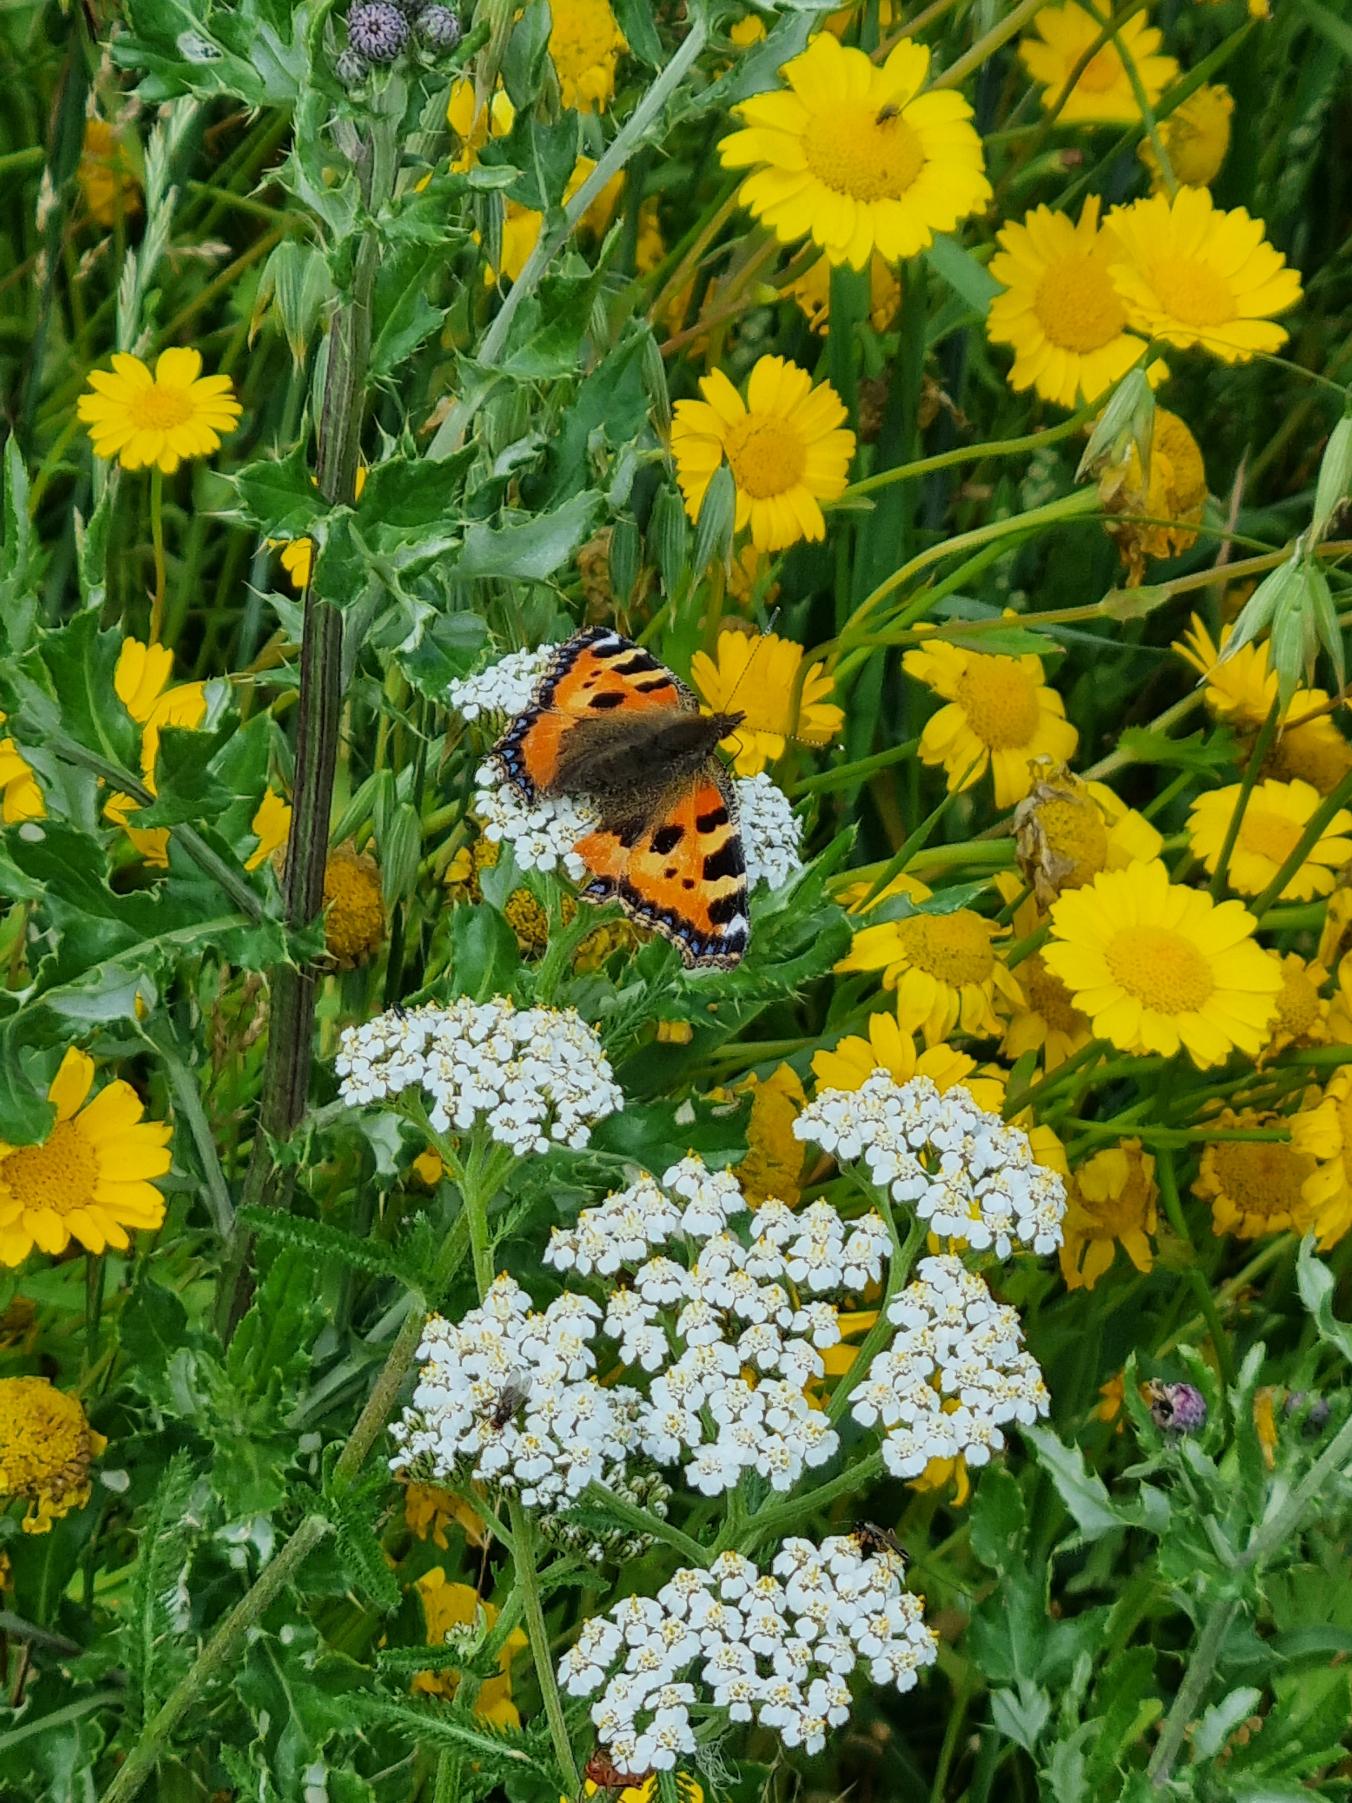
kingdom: Animalia
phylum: Arthropoda
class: Insecta
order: Lepidoptera
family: Nymphalidae
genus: Aglais
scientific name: Aglais urticae
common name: Nældens takvinge
